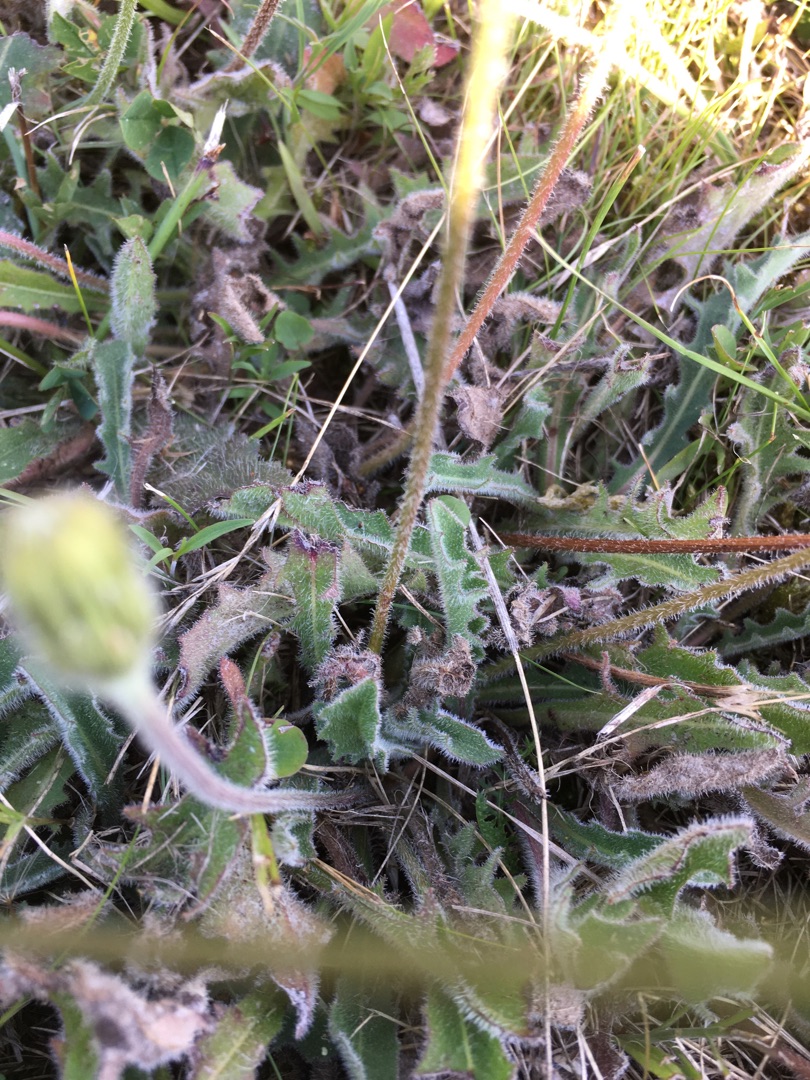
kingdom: Plantae
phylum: Tracheophyta
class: Magnoliopsida
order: Asterales
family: Asteraceae
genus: Leontodon
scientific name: Leontodon hispidus
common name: Stivhåret borst
